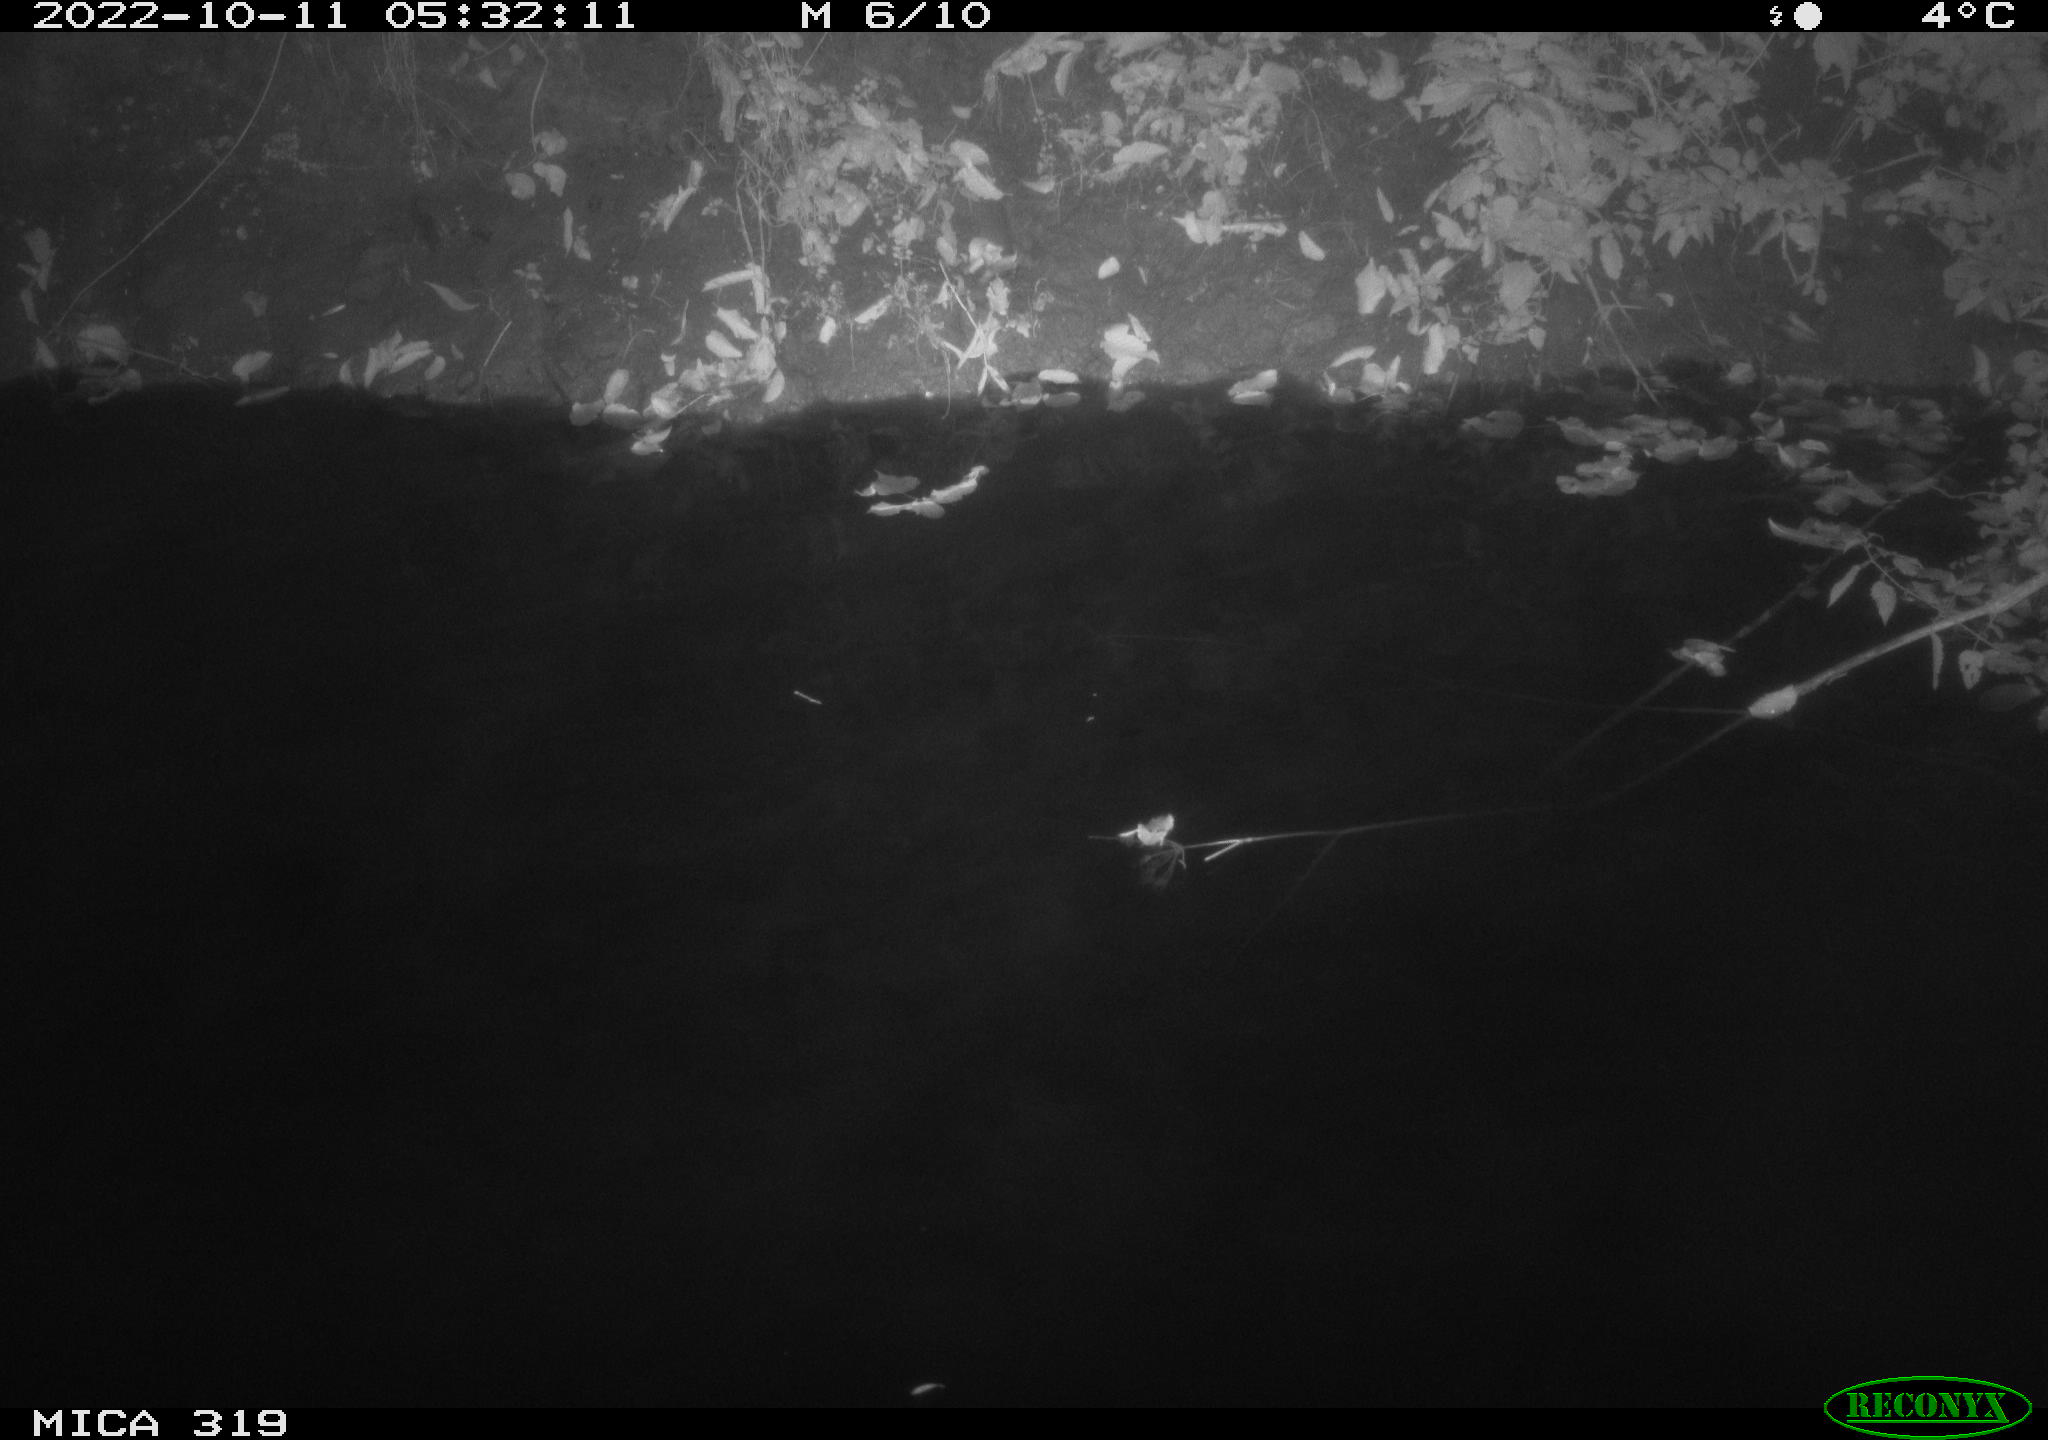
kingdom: Animalia
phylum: Chordata
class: Aves
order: Anseriformes
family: Anatidae
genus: Anas
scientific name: Anas
